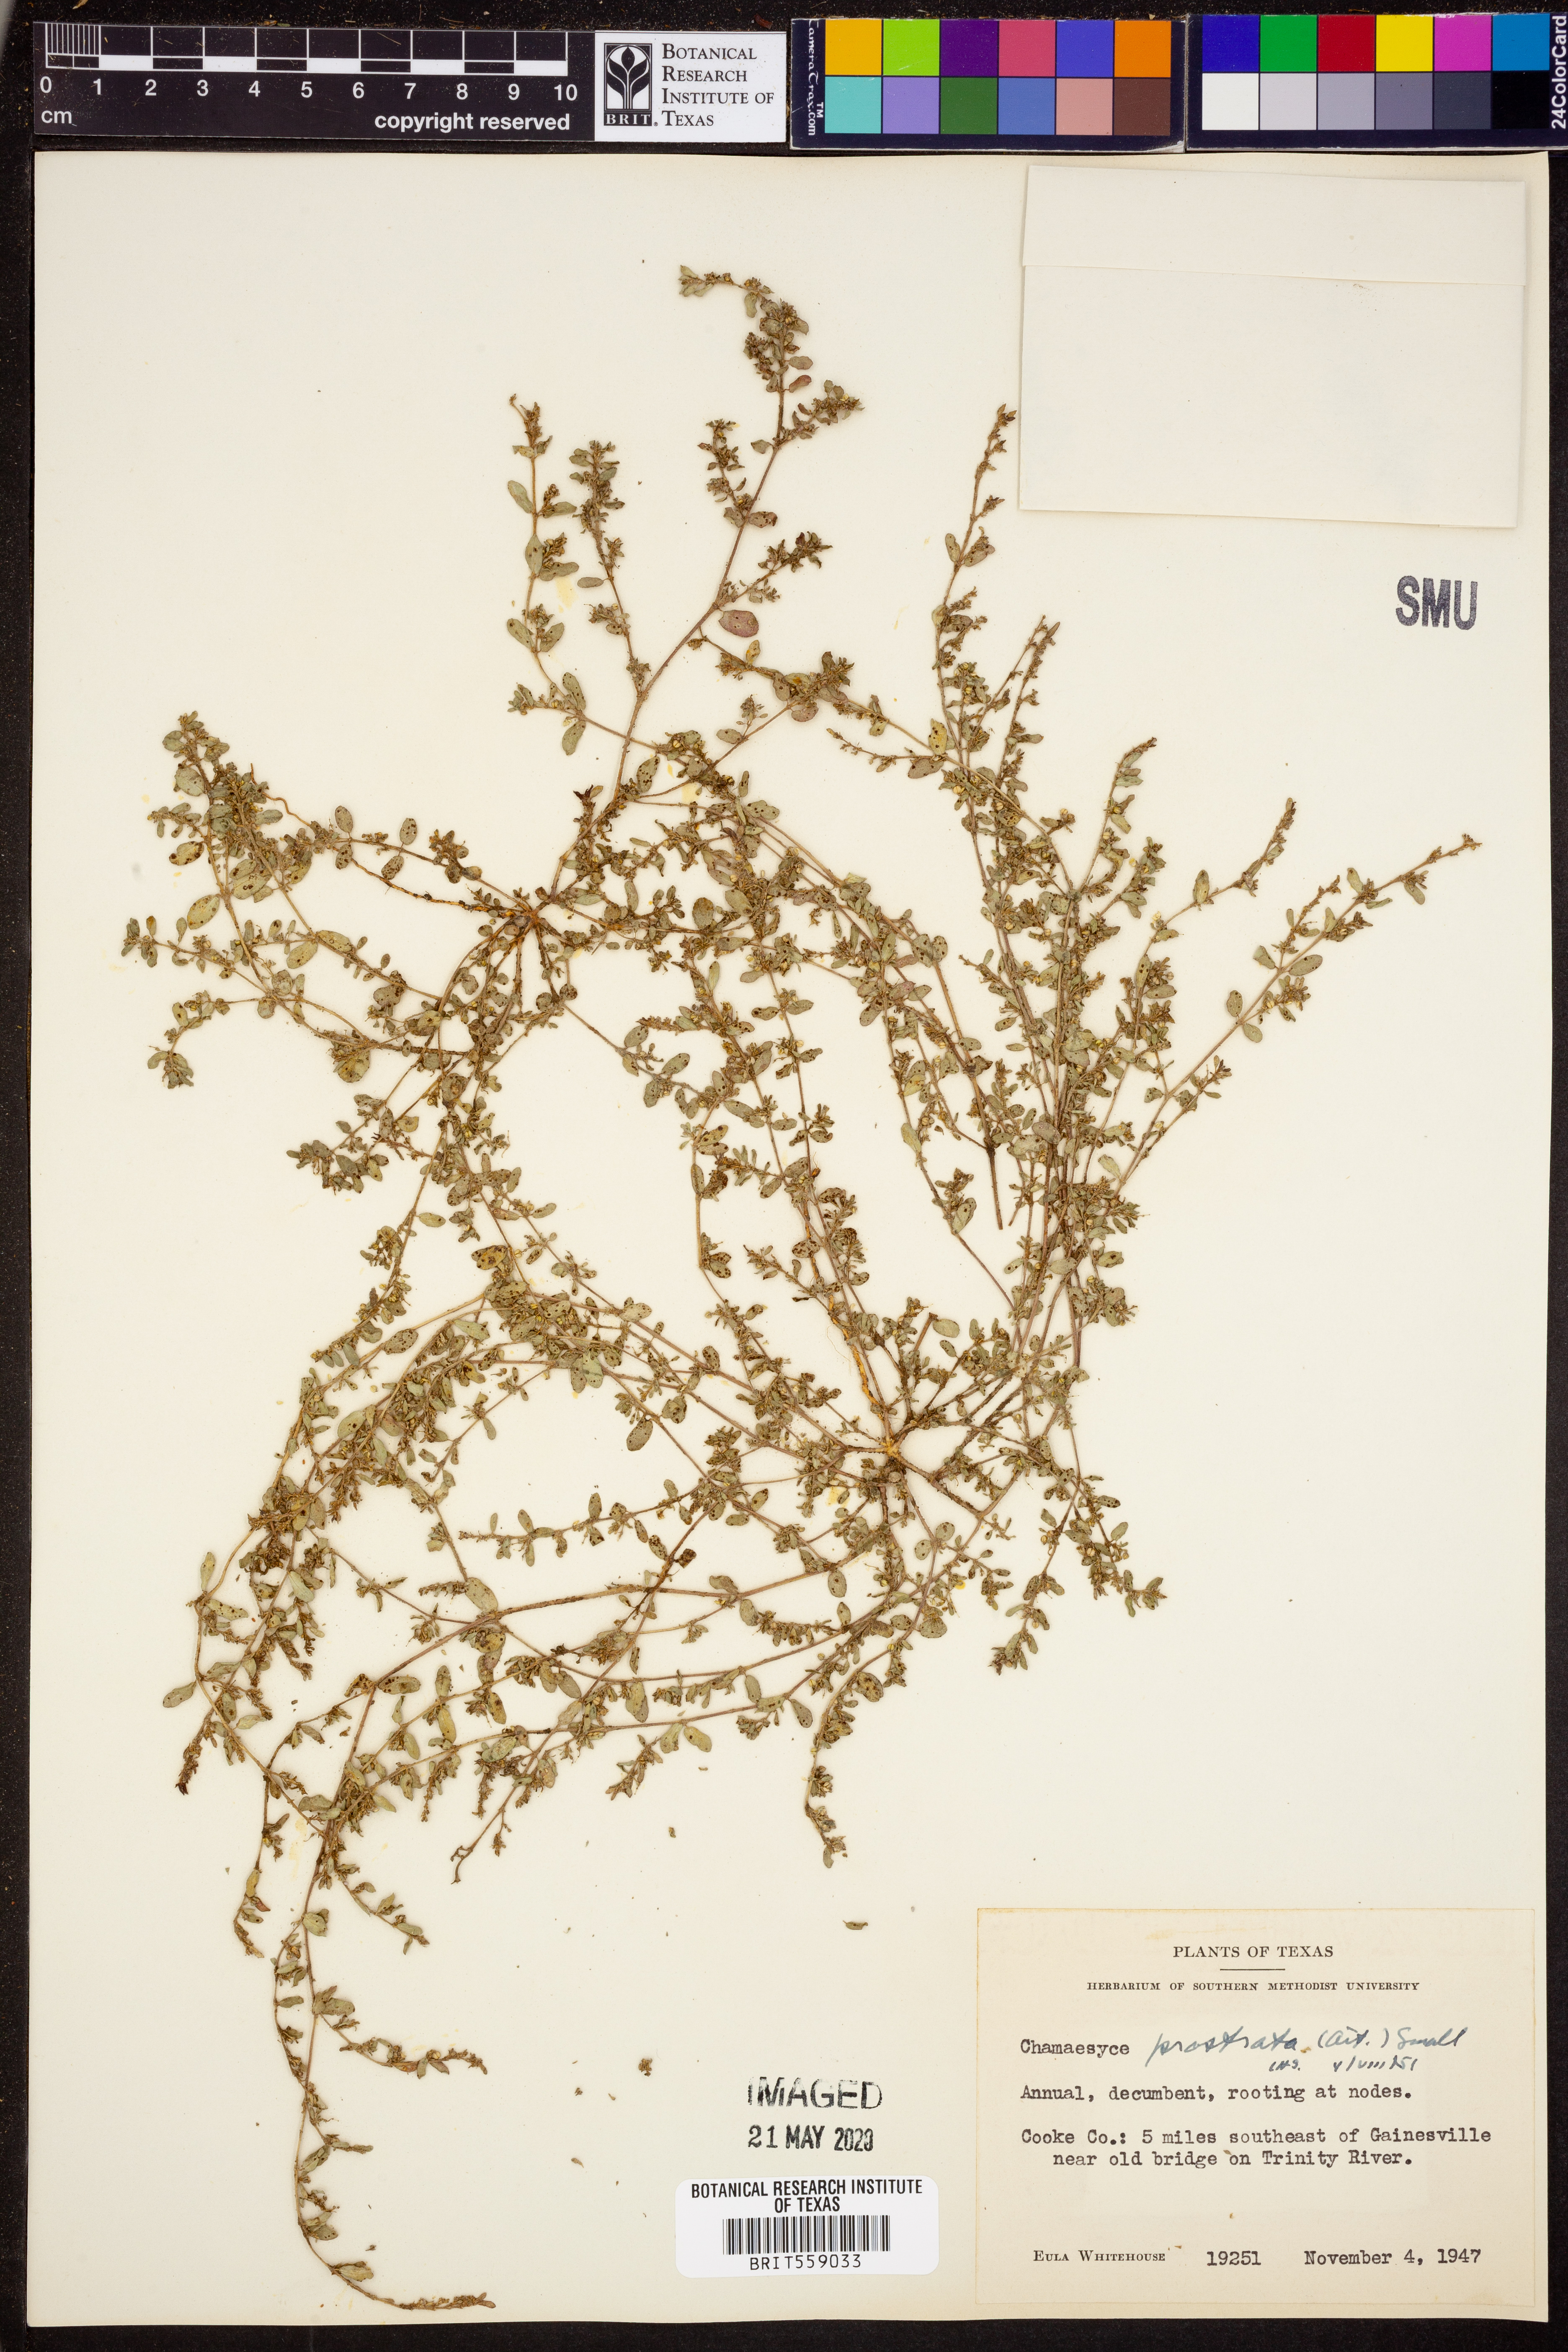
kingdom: Plantae
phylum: Tracheophyta
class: Magnoliopsida
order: Malpighiales
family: Euphorbiaceae
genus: Euphorbia
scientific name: Euphorbia prostrata
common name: Prostrate sandmat
